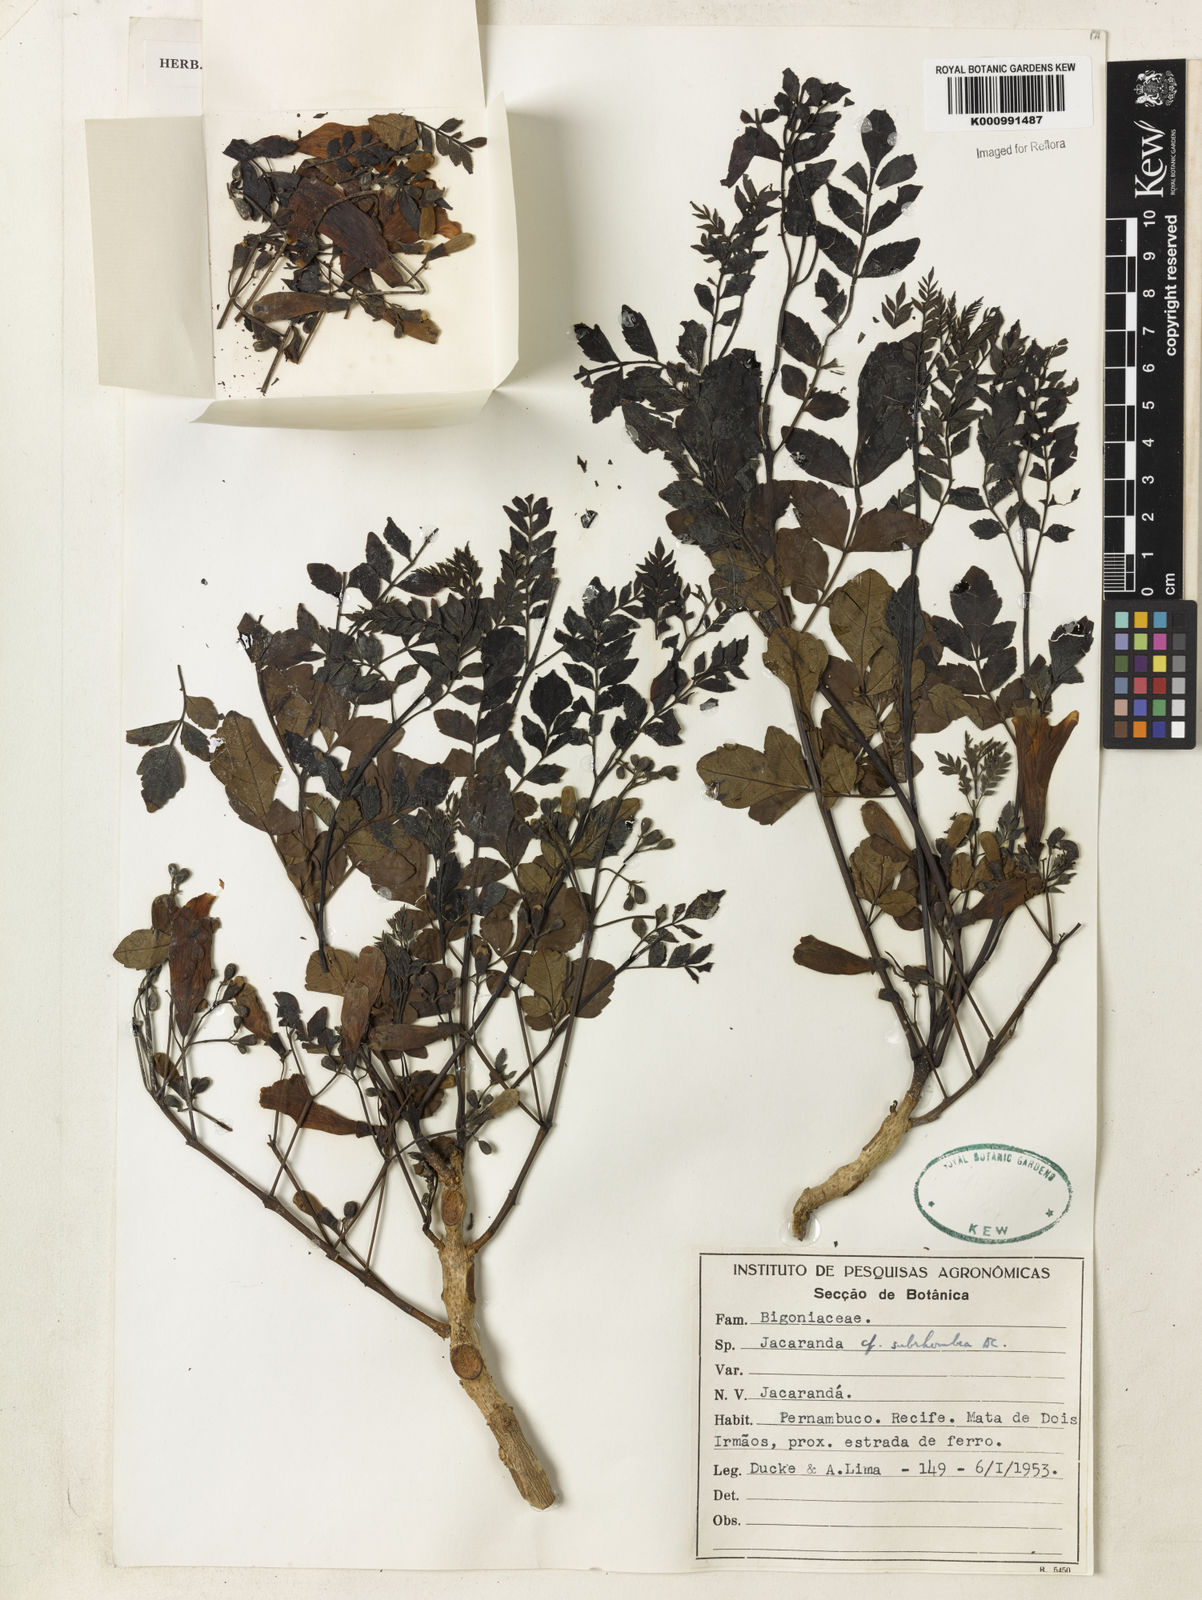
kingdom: Plantae
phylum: Tracheophyta
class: Magnoliopsida
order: Lamiales
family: Bignoniaceae
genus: Jacaranda
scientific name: Jacaranda puberula
